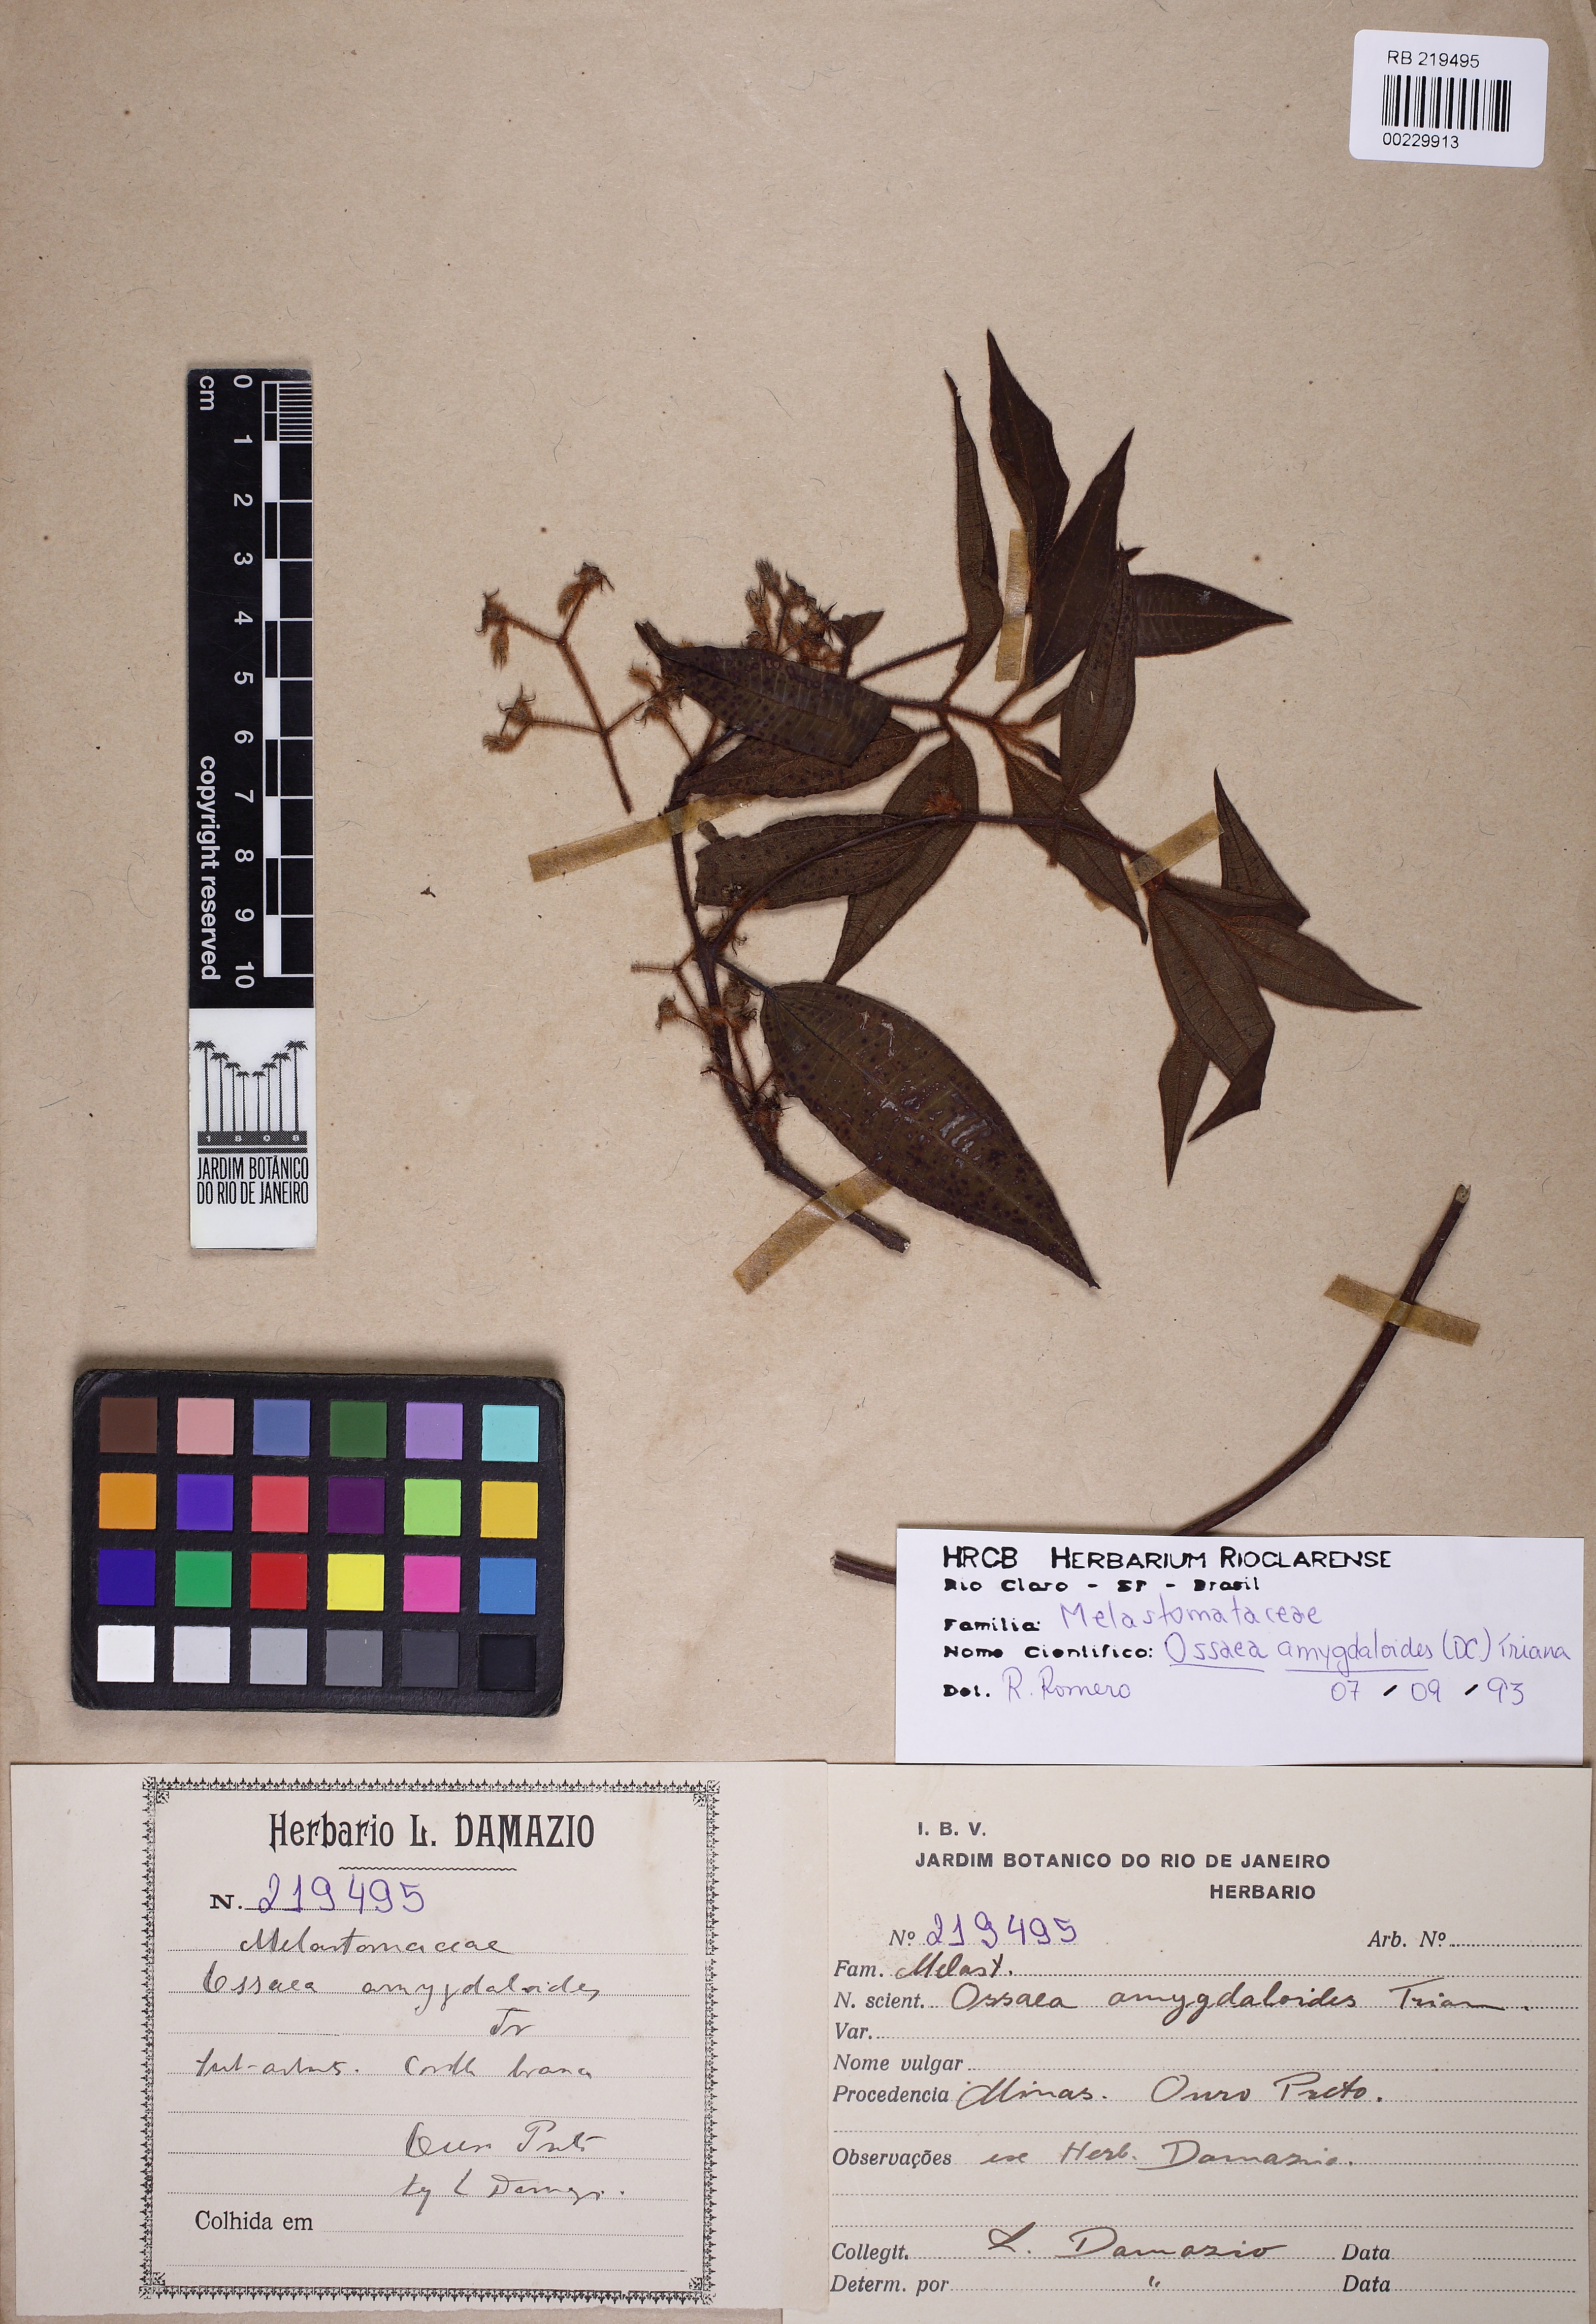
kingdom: Plantae
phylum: Tracheophyta
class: Magnoliopsida
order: Myrtales
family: Melastomataceae
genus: Miconia
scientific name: Miconia meridionalis
